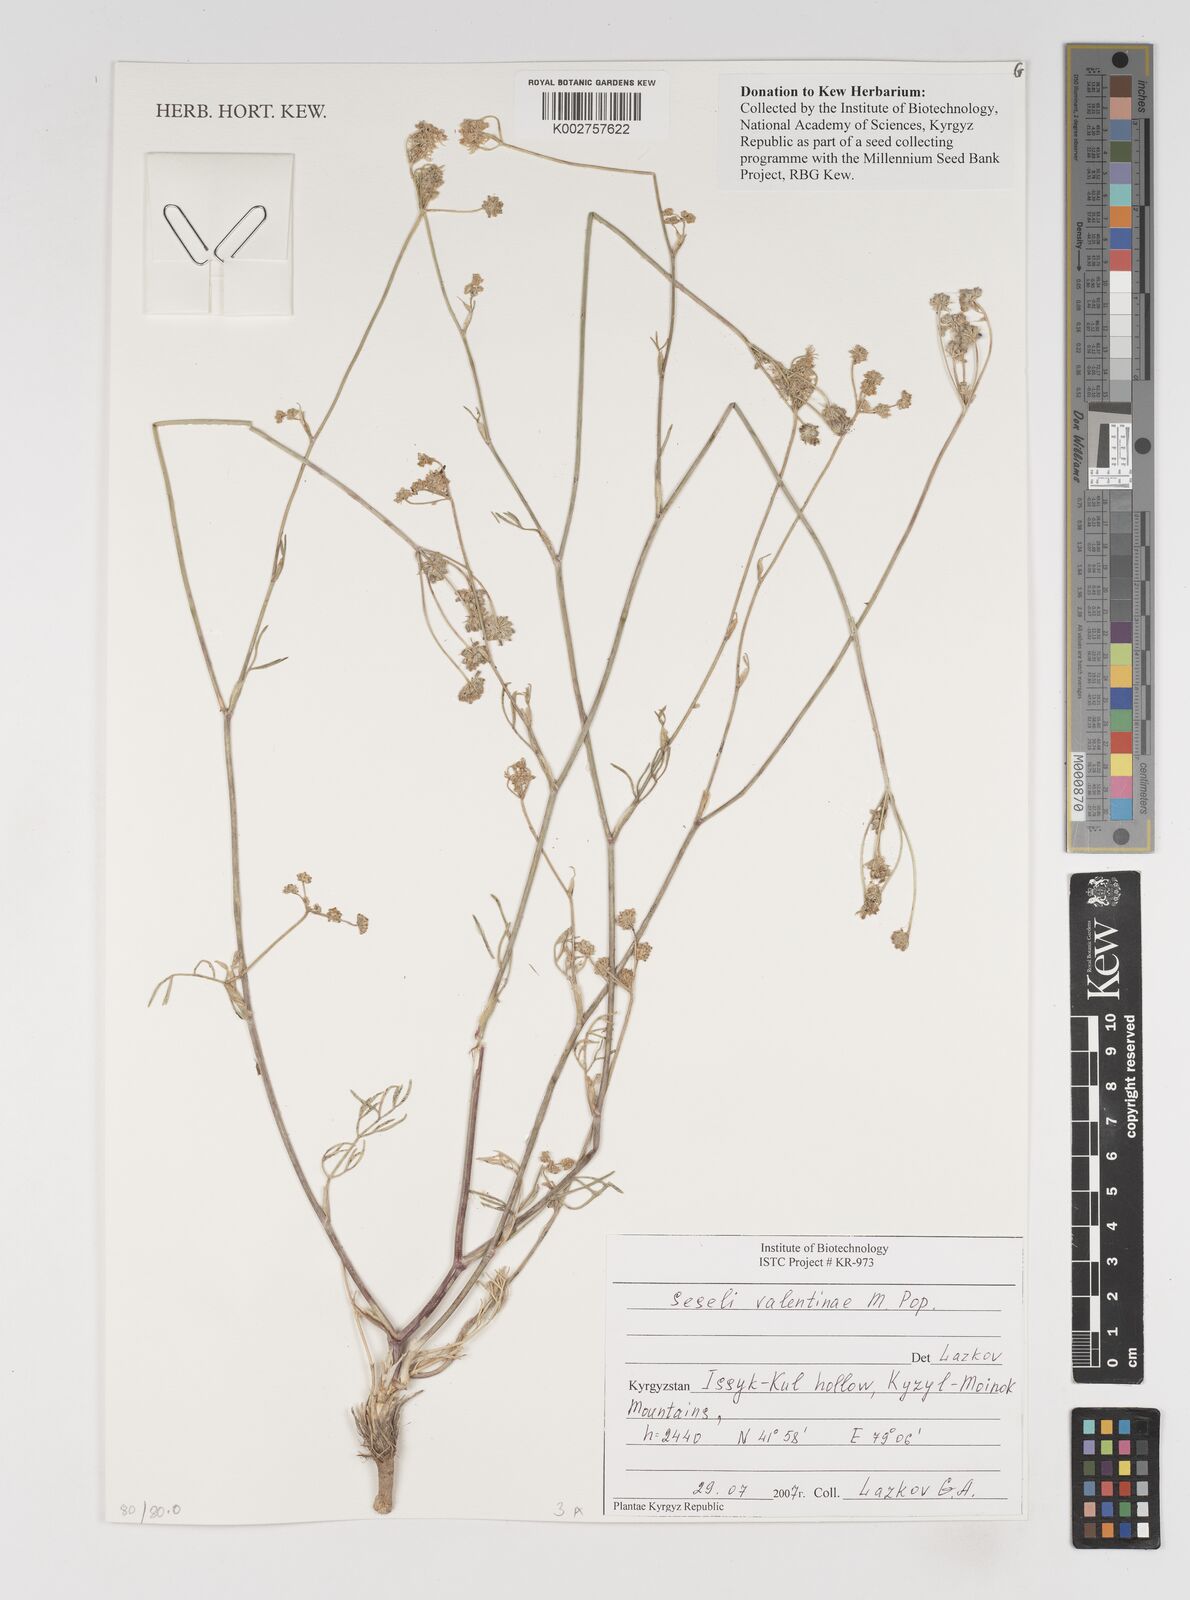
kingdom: Plantae
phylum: Tracheophyta
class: Magnoliopsida
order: Apiales
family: Apiaceae
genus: Seseli
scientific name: Seseli valentinae
